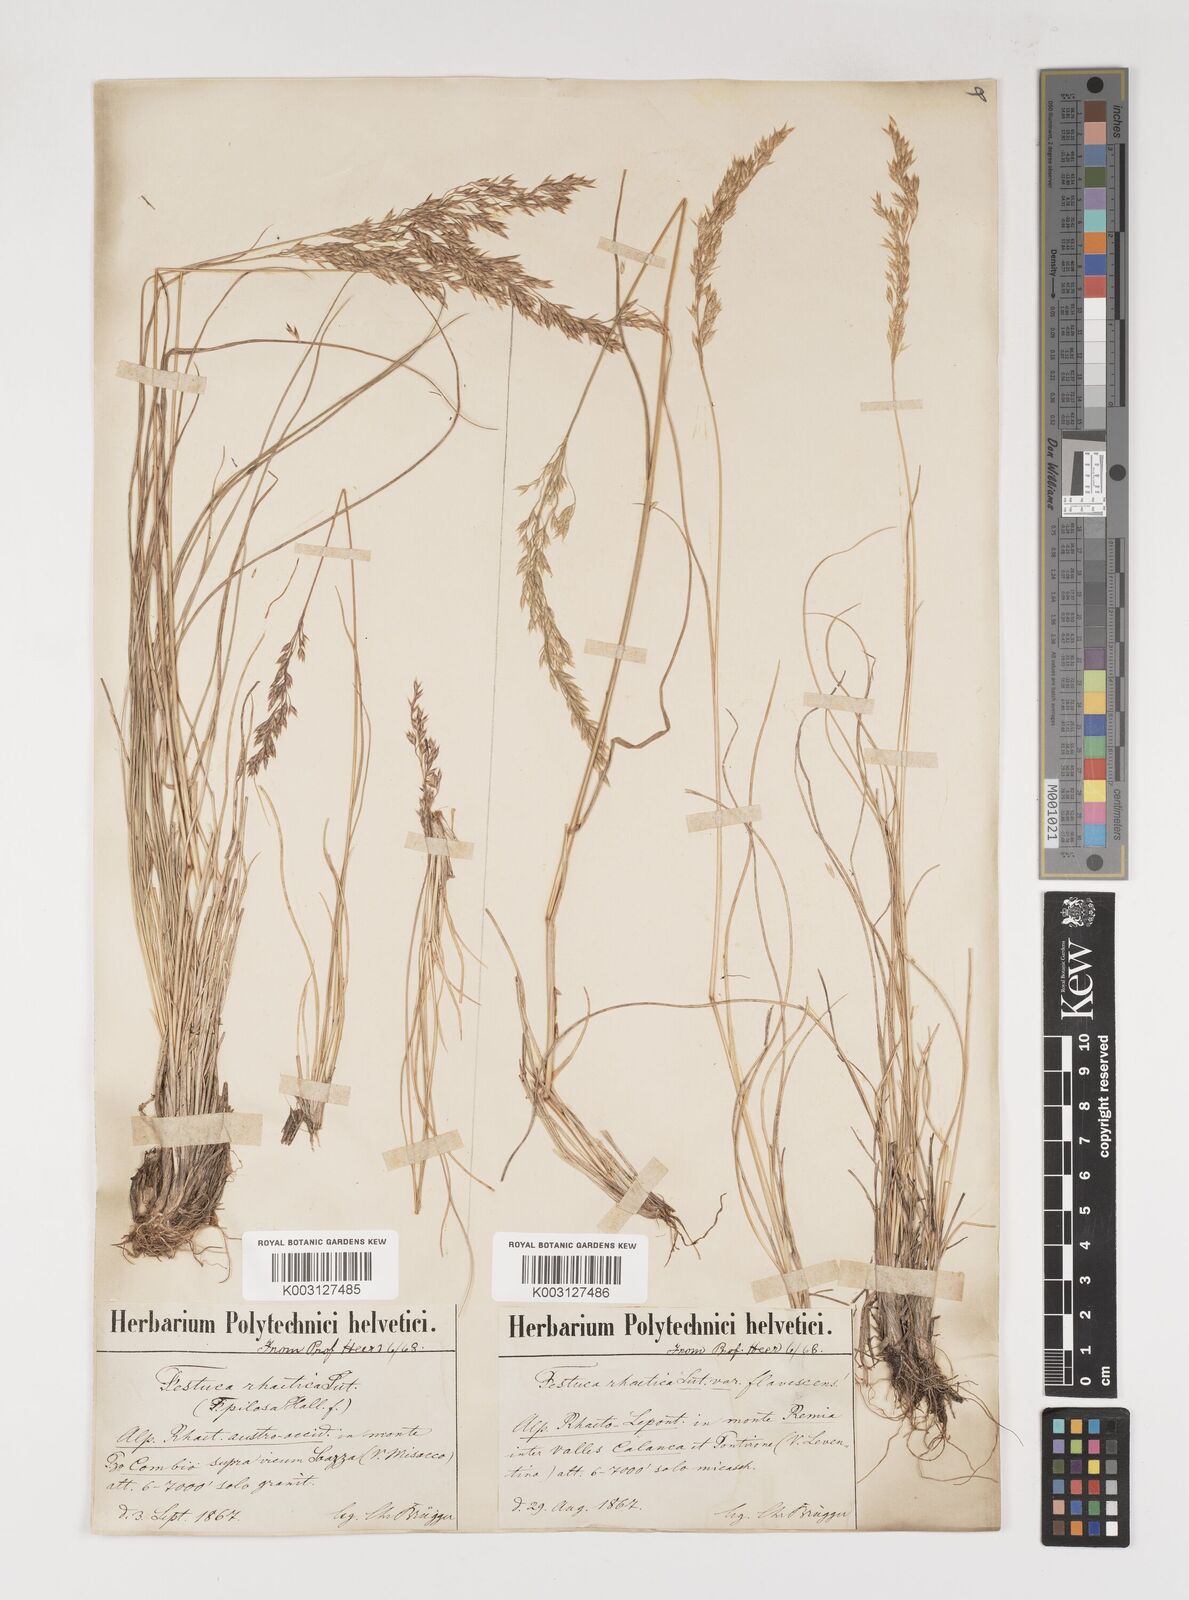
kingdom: Plantae
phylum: Tracheophyta
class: Liliopsida
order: Poales
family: Poaceae
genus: Bellardiochloa
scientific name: Bellardiochloa variegata
